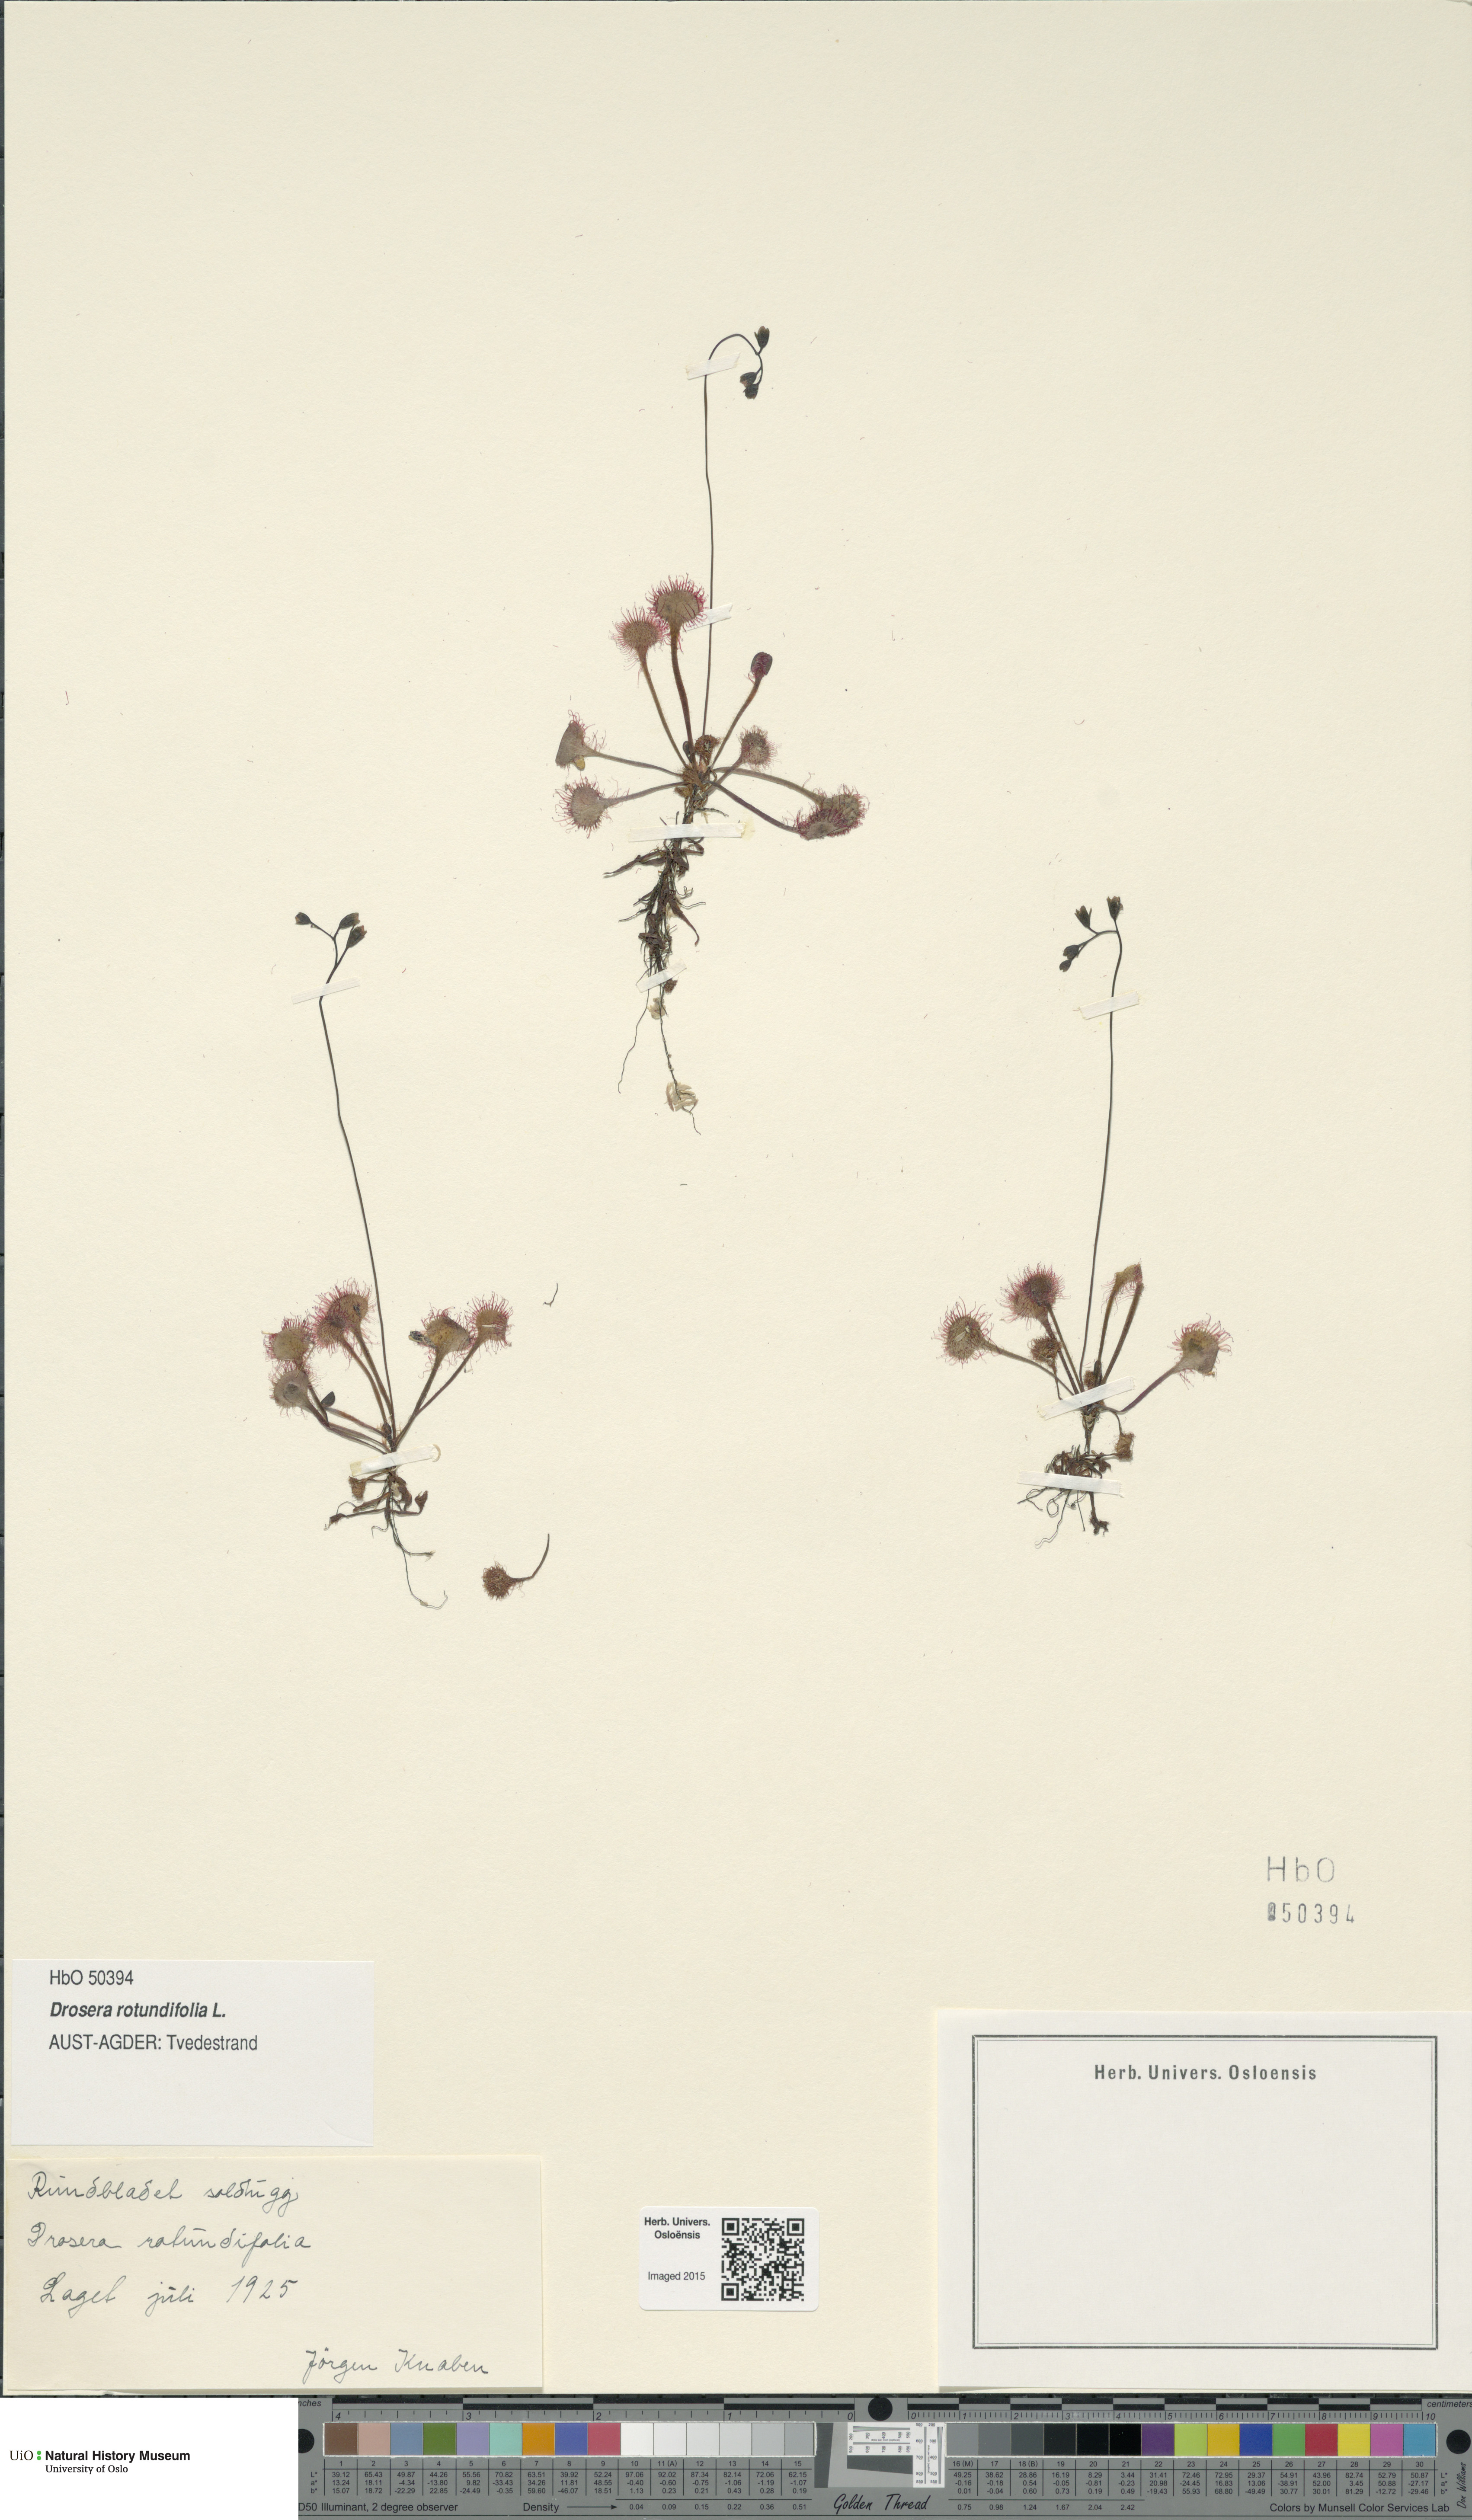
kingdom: Plantae
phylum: Tracheophyta
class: Magnoliopsida
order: Caryophyllales
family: Droseraceae
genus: Drosera
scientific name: Drosera rotundifolia
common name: Round-leaved sundew
